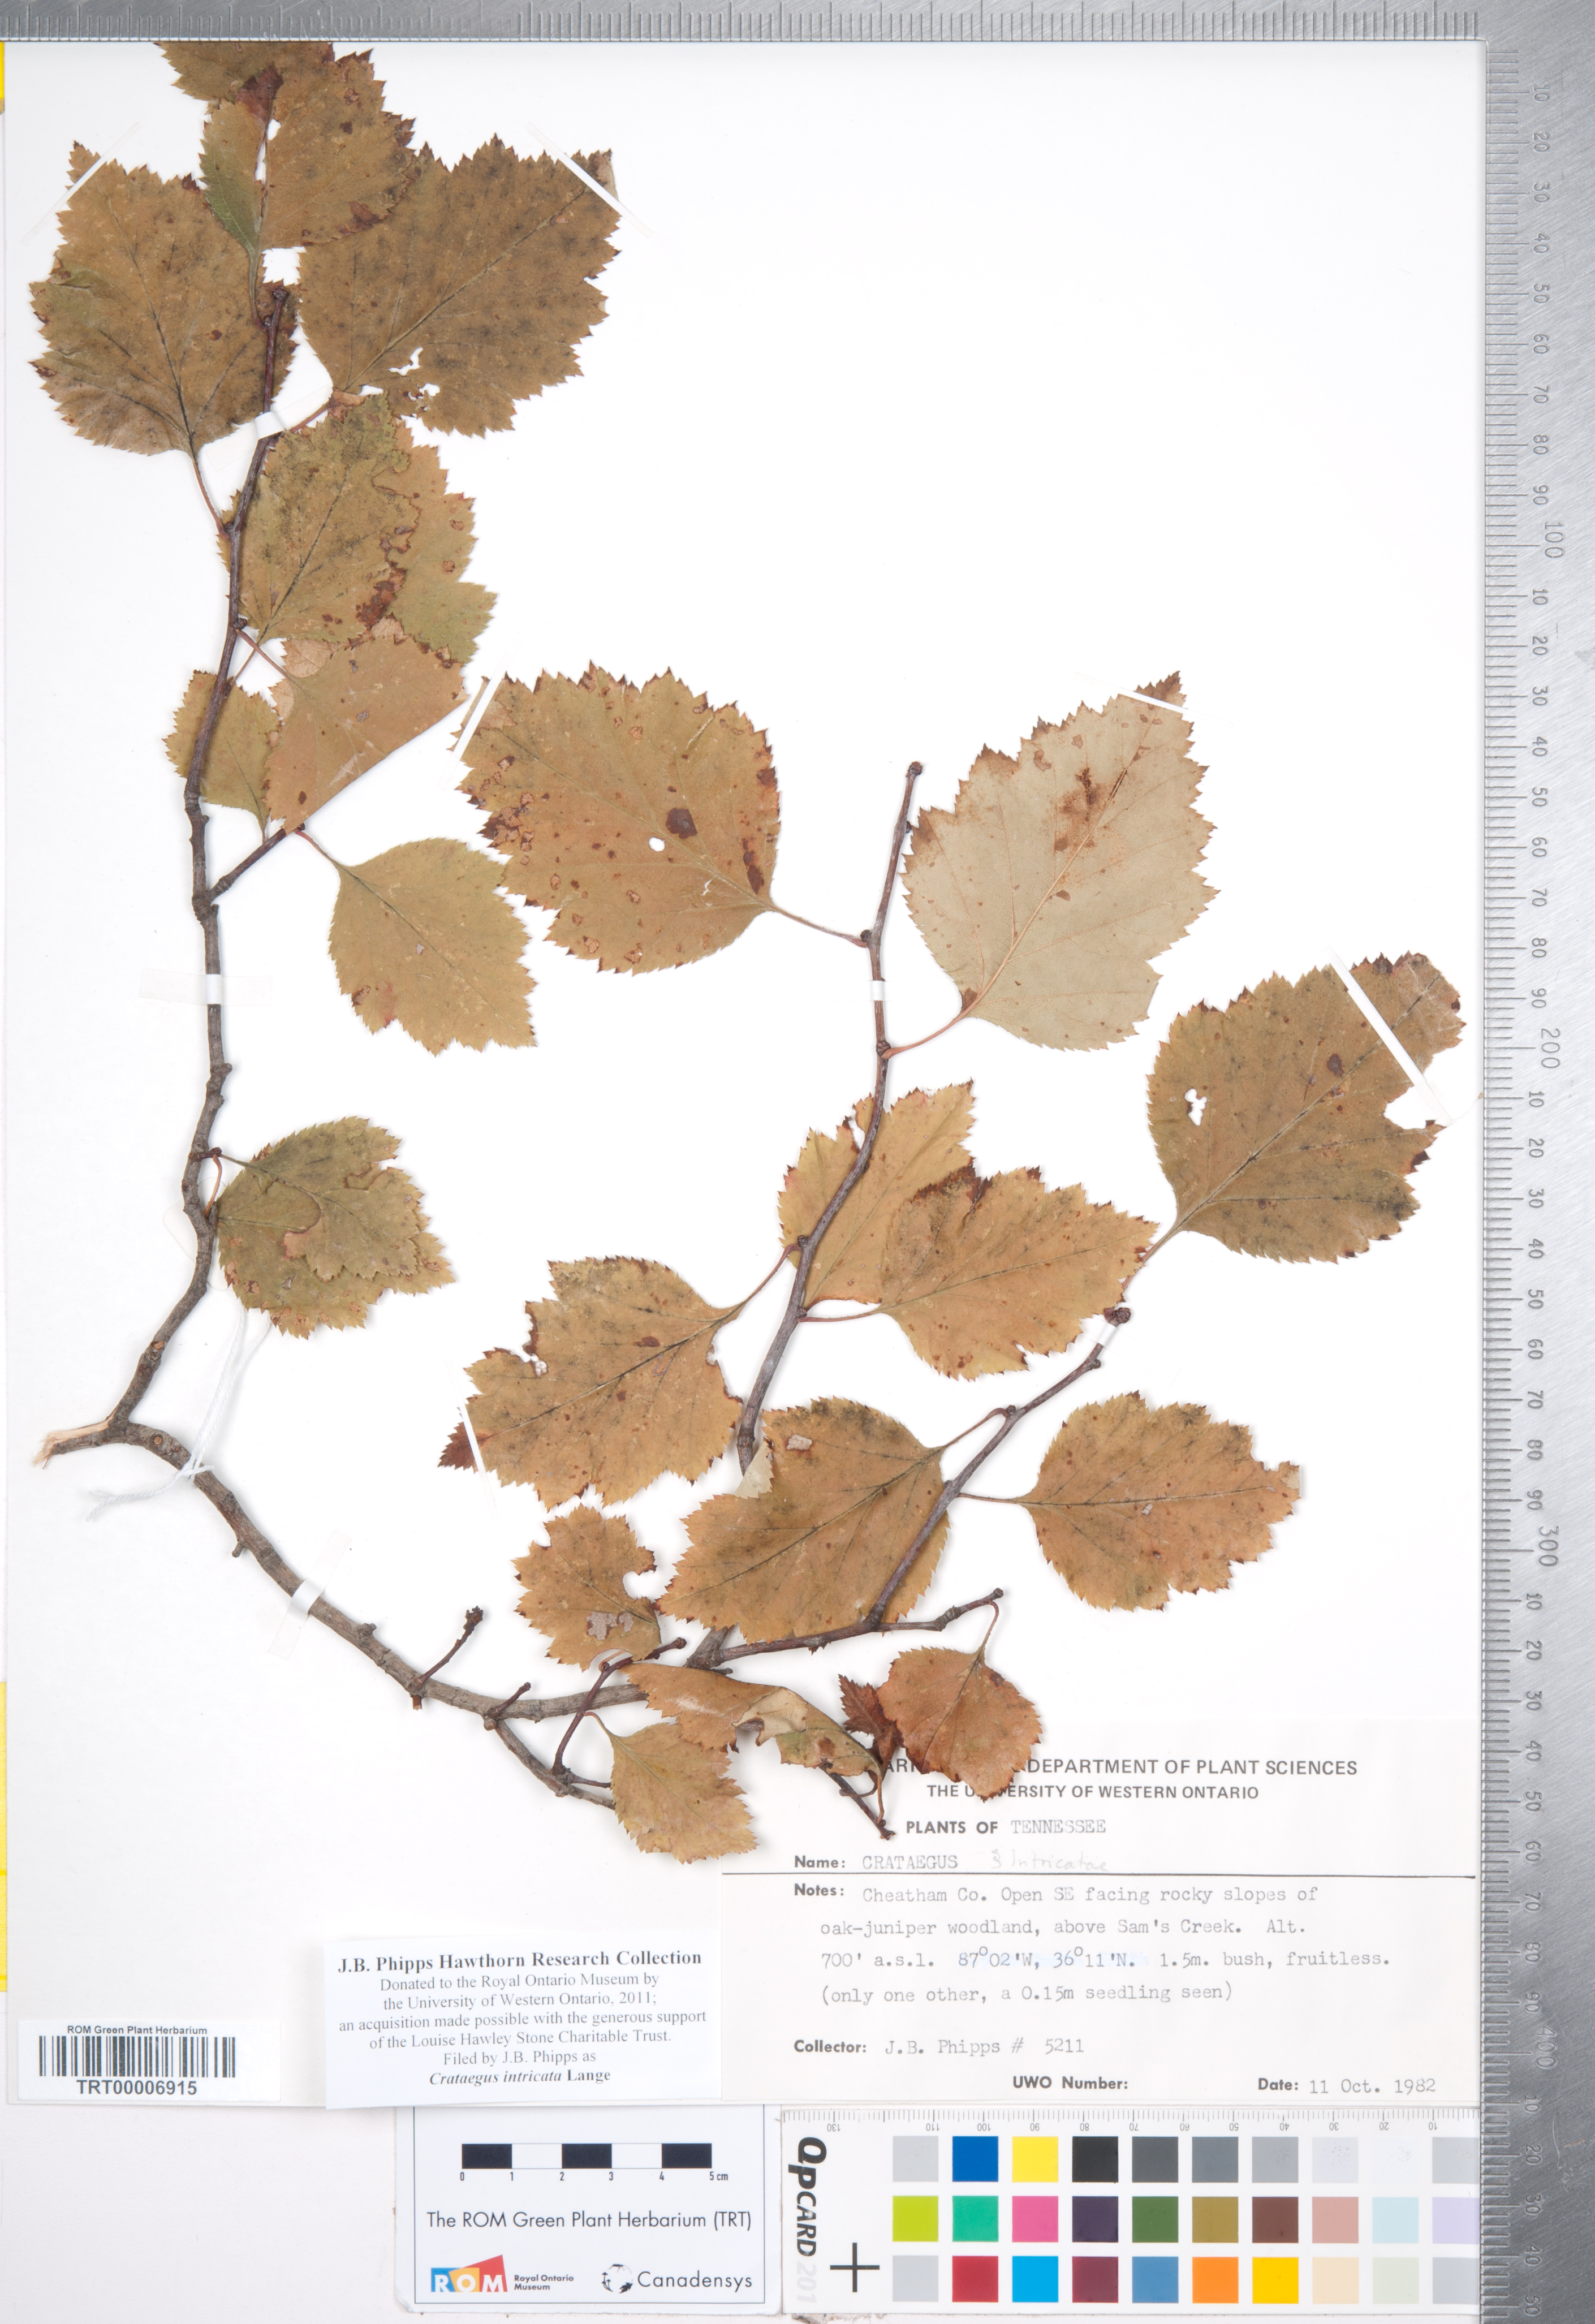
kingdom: Plantae
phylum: Tracheophyta
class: Magnoliopsida
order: Rosales
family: Rosaceae
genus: Crataegus
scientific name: Crataegus intricata
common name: Biltmore hawthorn
